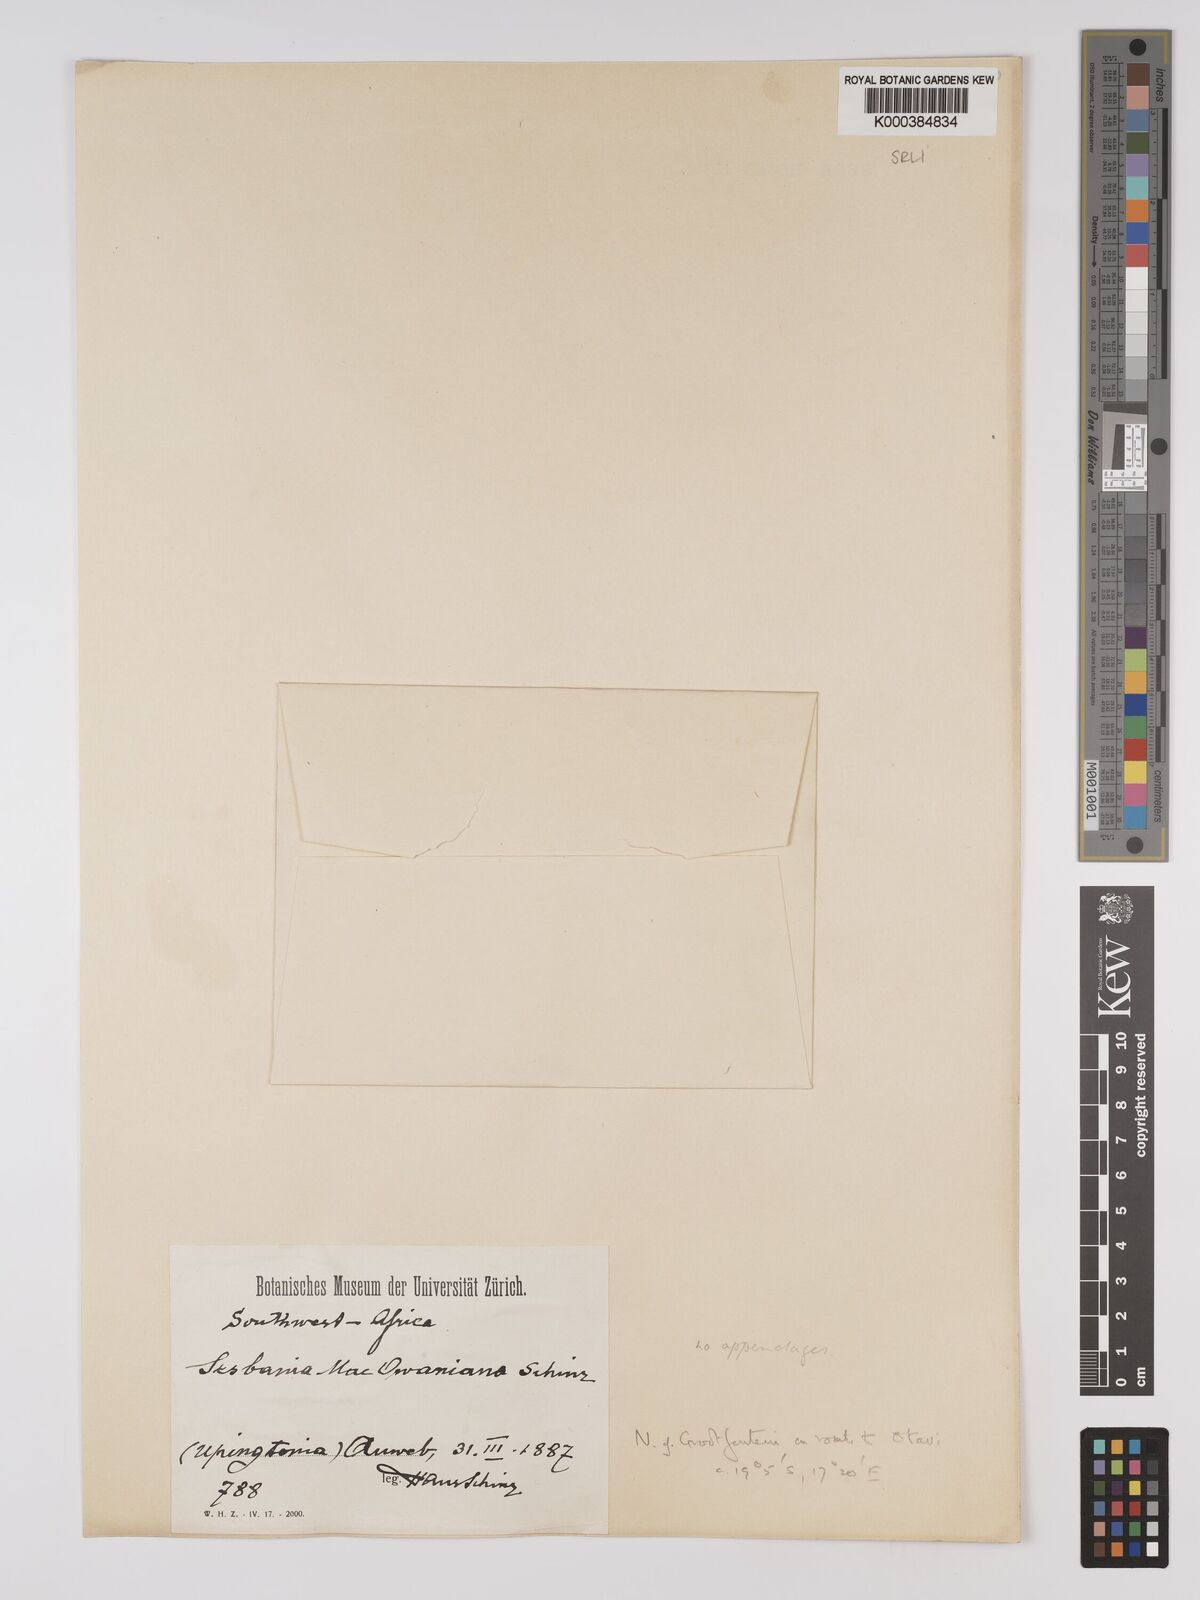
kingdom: Plantae
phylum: Tracheophyta
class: Magnoliopsida
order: Fabales
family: Fabaceae
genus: Sesbania
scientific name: Sesbania macowaniana
